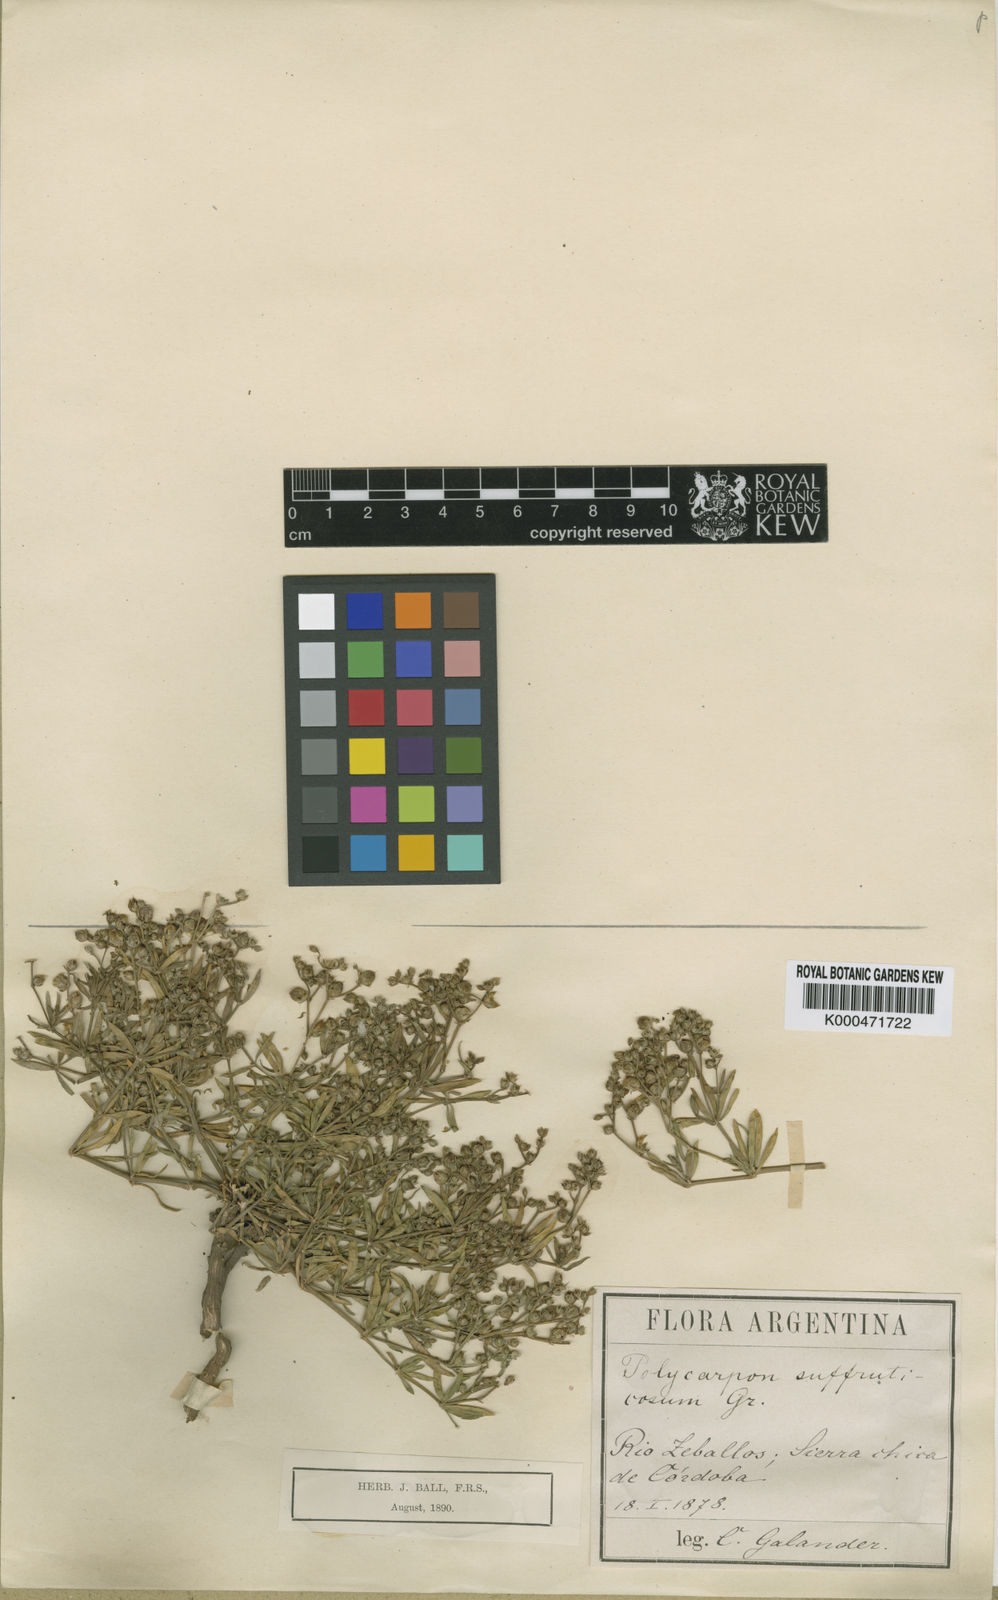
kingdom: Plantae
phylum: Tracheophyta
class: Magnoliopsida
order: Caryophyllales
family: Caryophyllaceae
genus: Augustea
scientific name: Augustea suffruticosa
